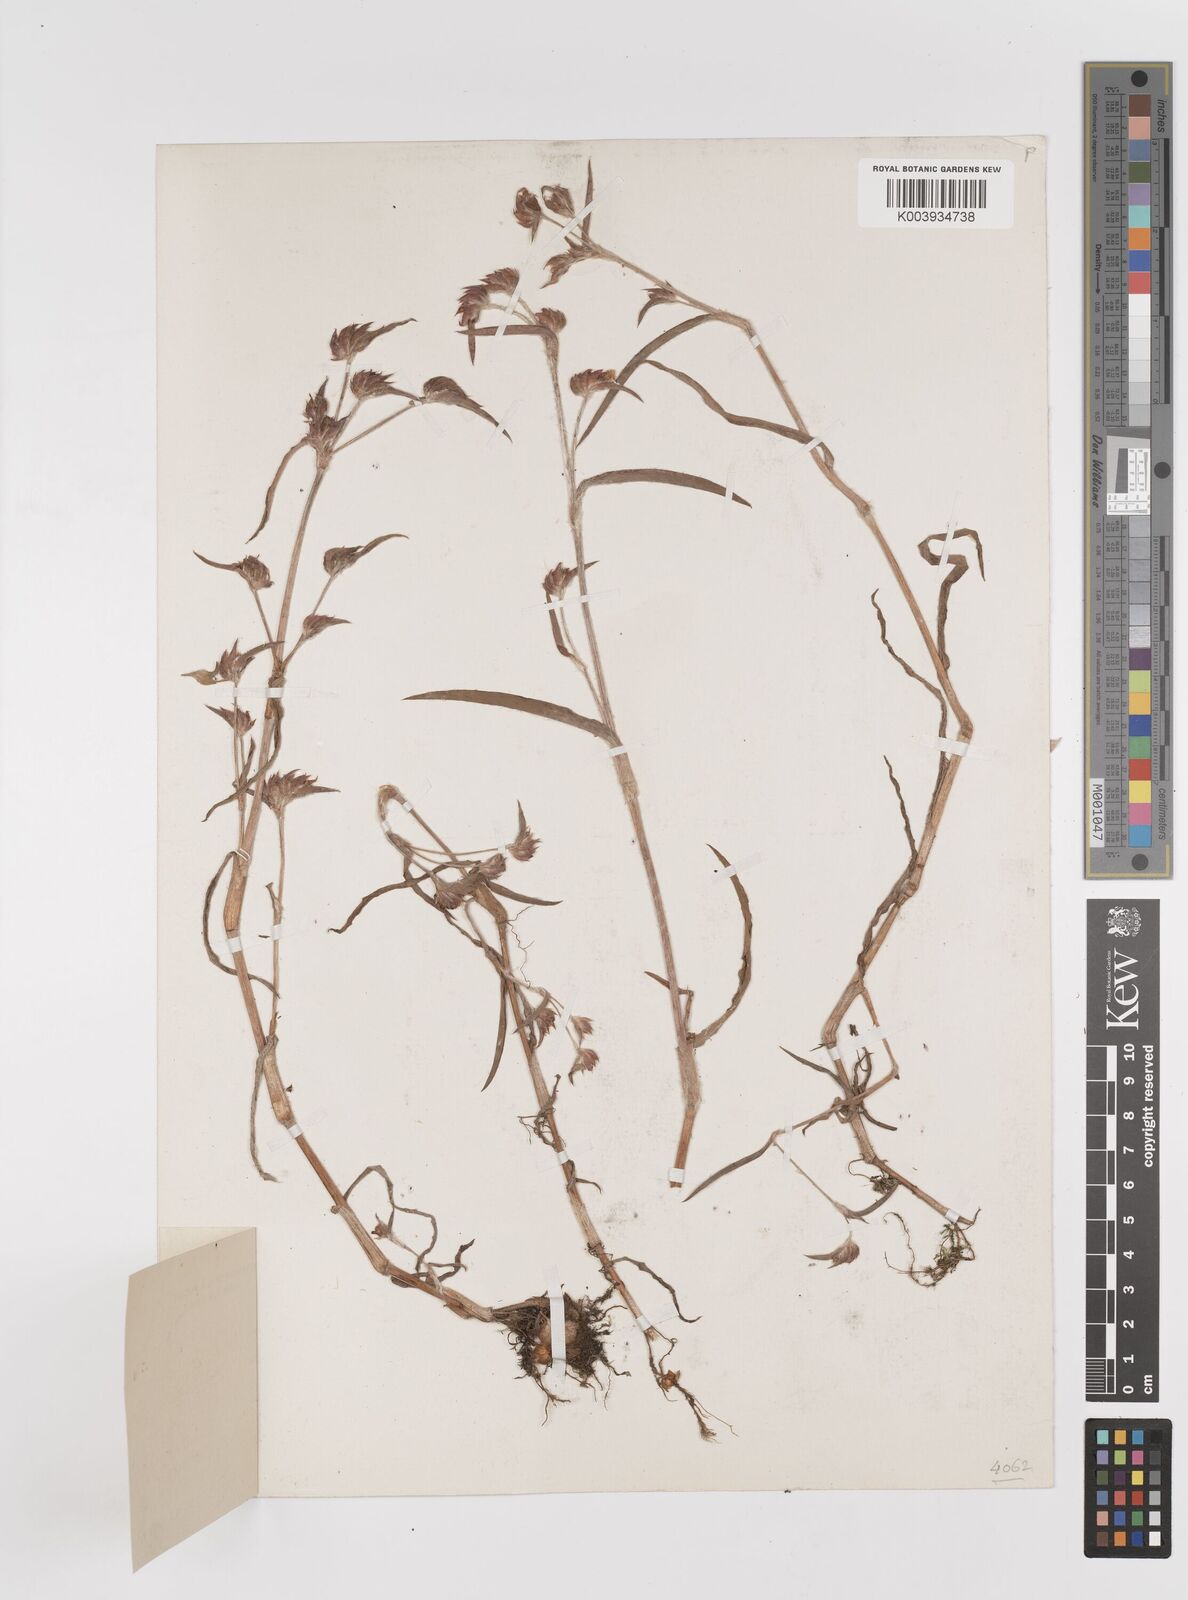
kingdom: Plantae
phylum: Tracheophyta
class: Liliopsida
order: Commelinales
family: Commelinaceae
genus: Cyanotis
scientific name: Cyanotis fasciculata
